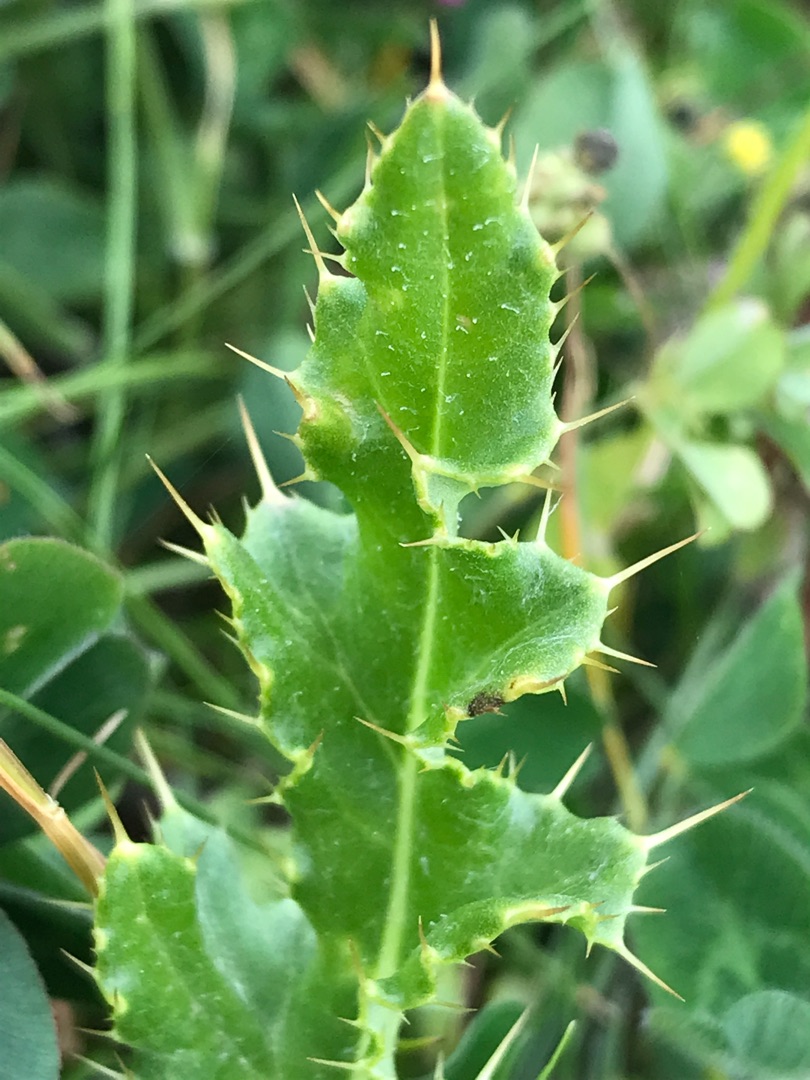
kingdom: Plantae
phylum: Tracheophyta
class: Magnoliopsida
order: Asterales
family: Asteraceae
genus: Cirsium
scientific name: Cirsium arvense
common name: Ager-tidsel
